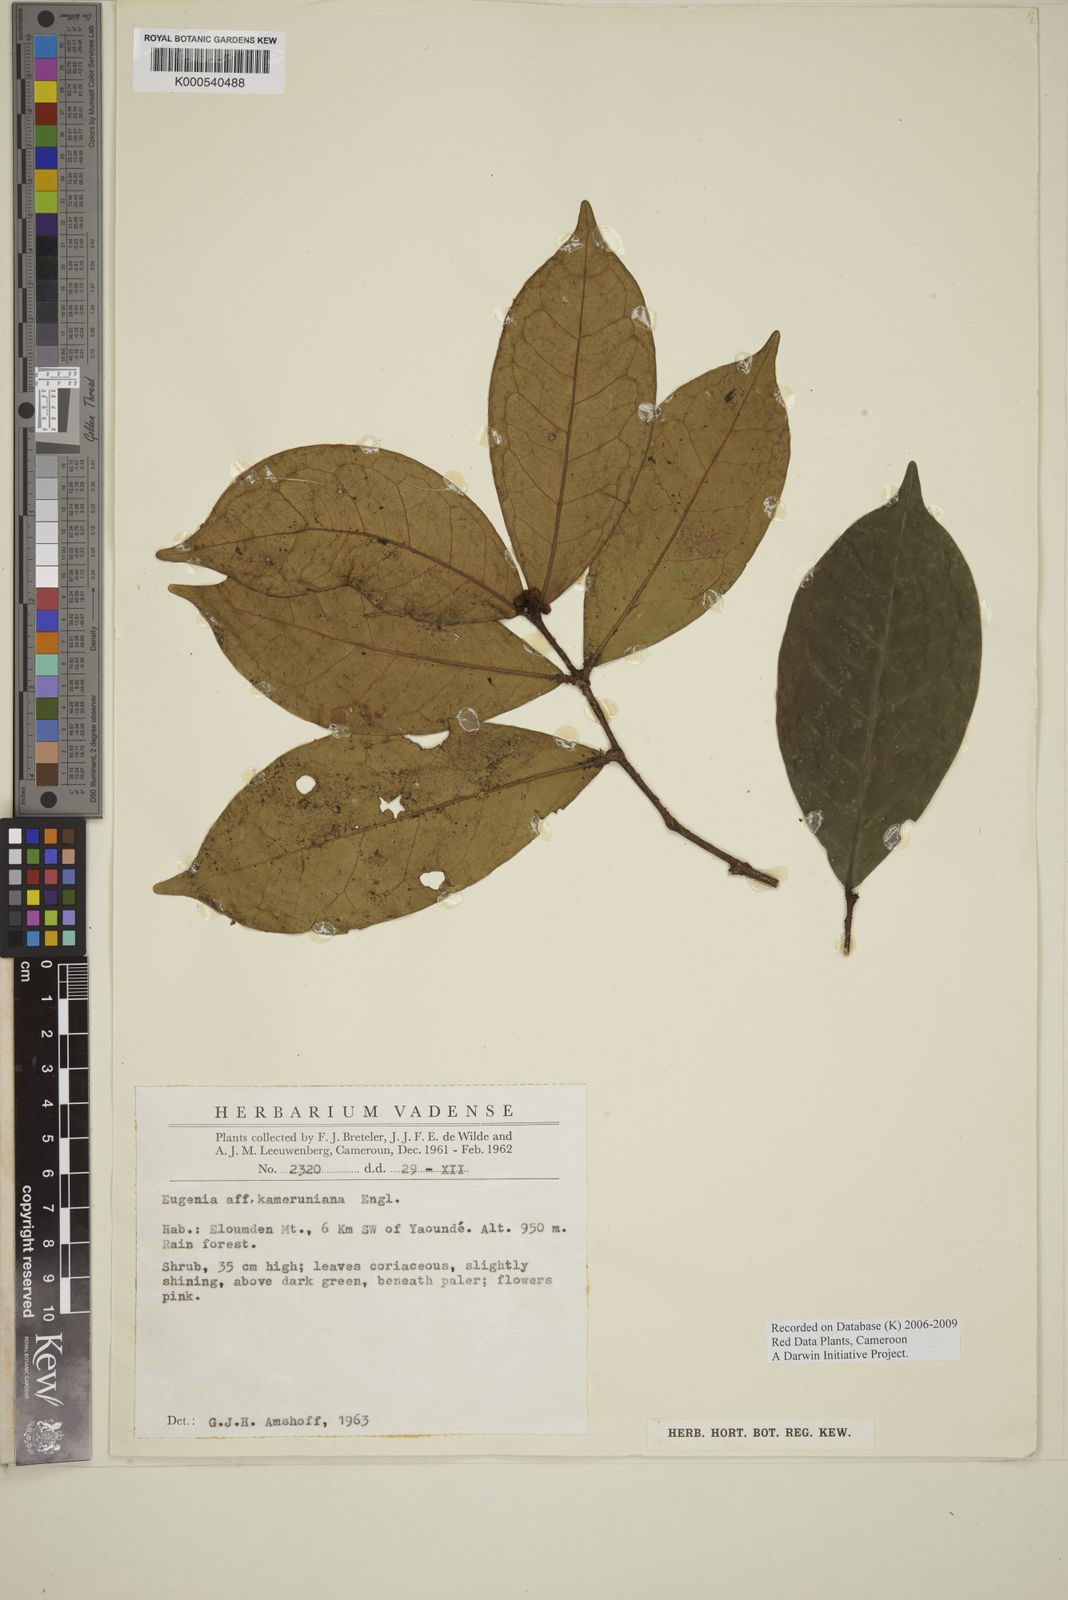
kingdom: Plantae
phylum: Tracheophyta
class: Magnoliopsida
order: Myrtales
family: Myrtaceae
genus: Eugenia
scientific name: Eugenia
